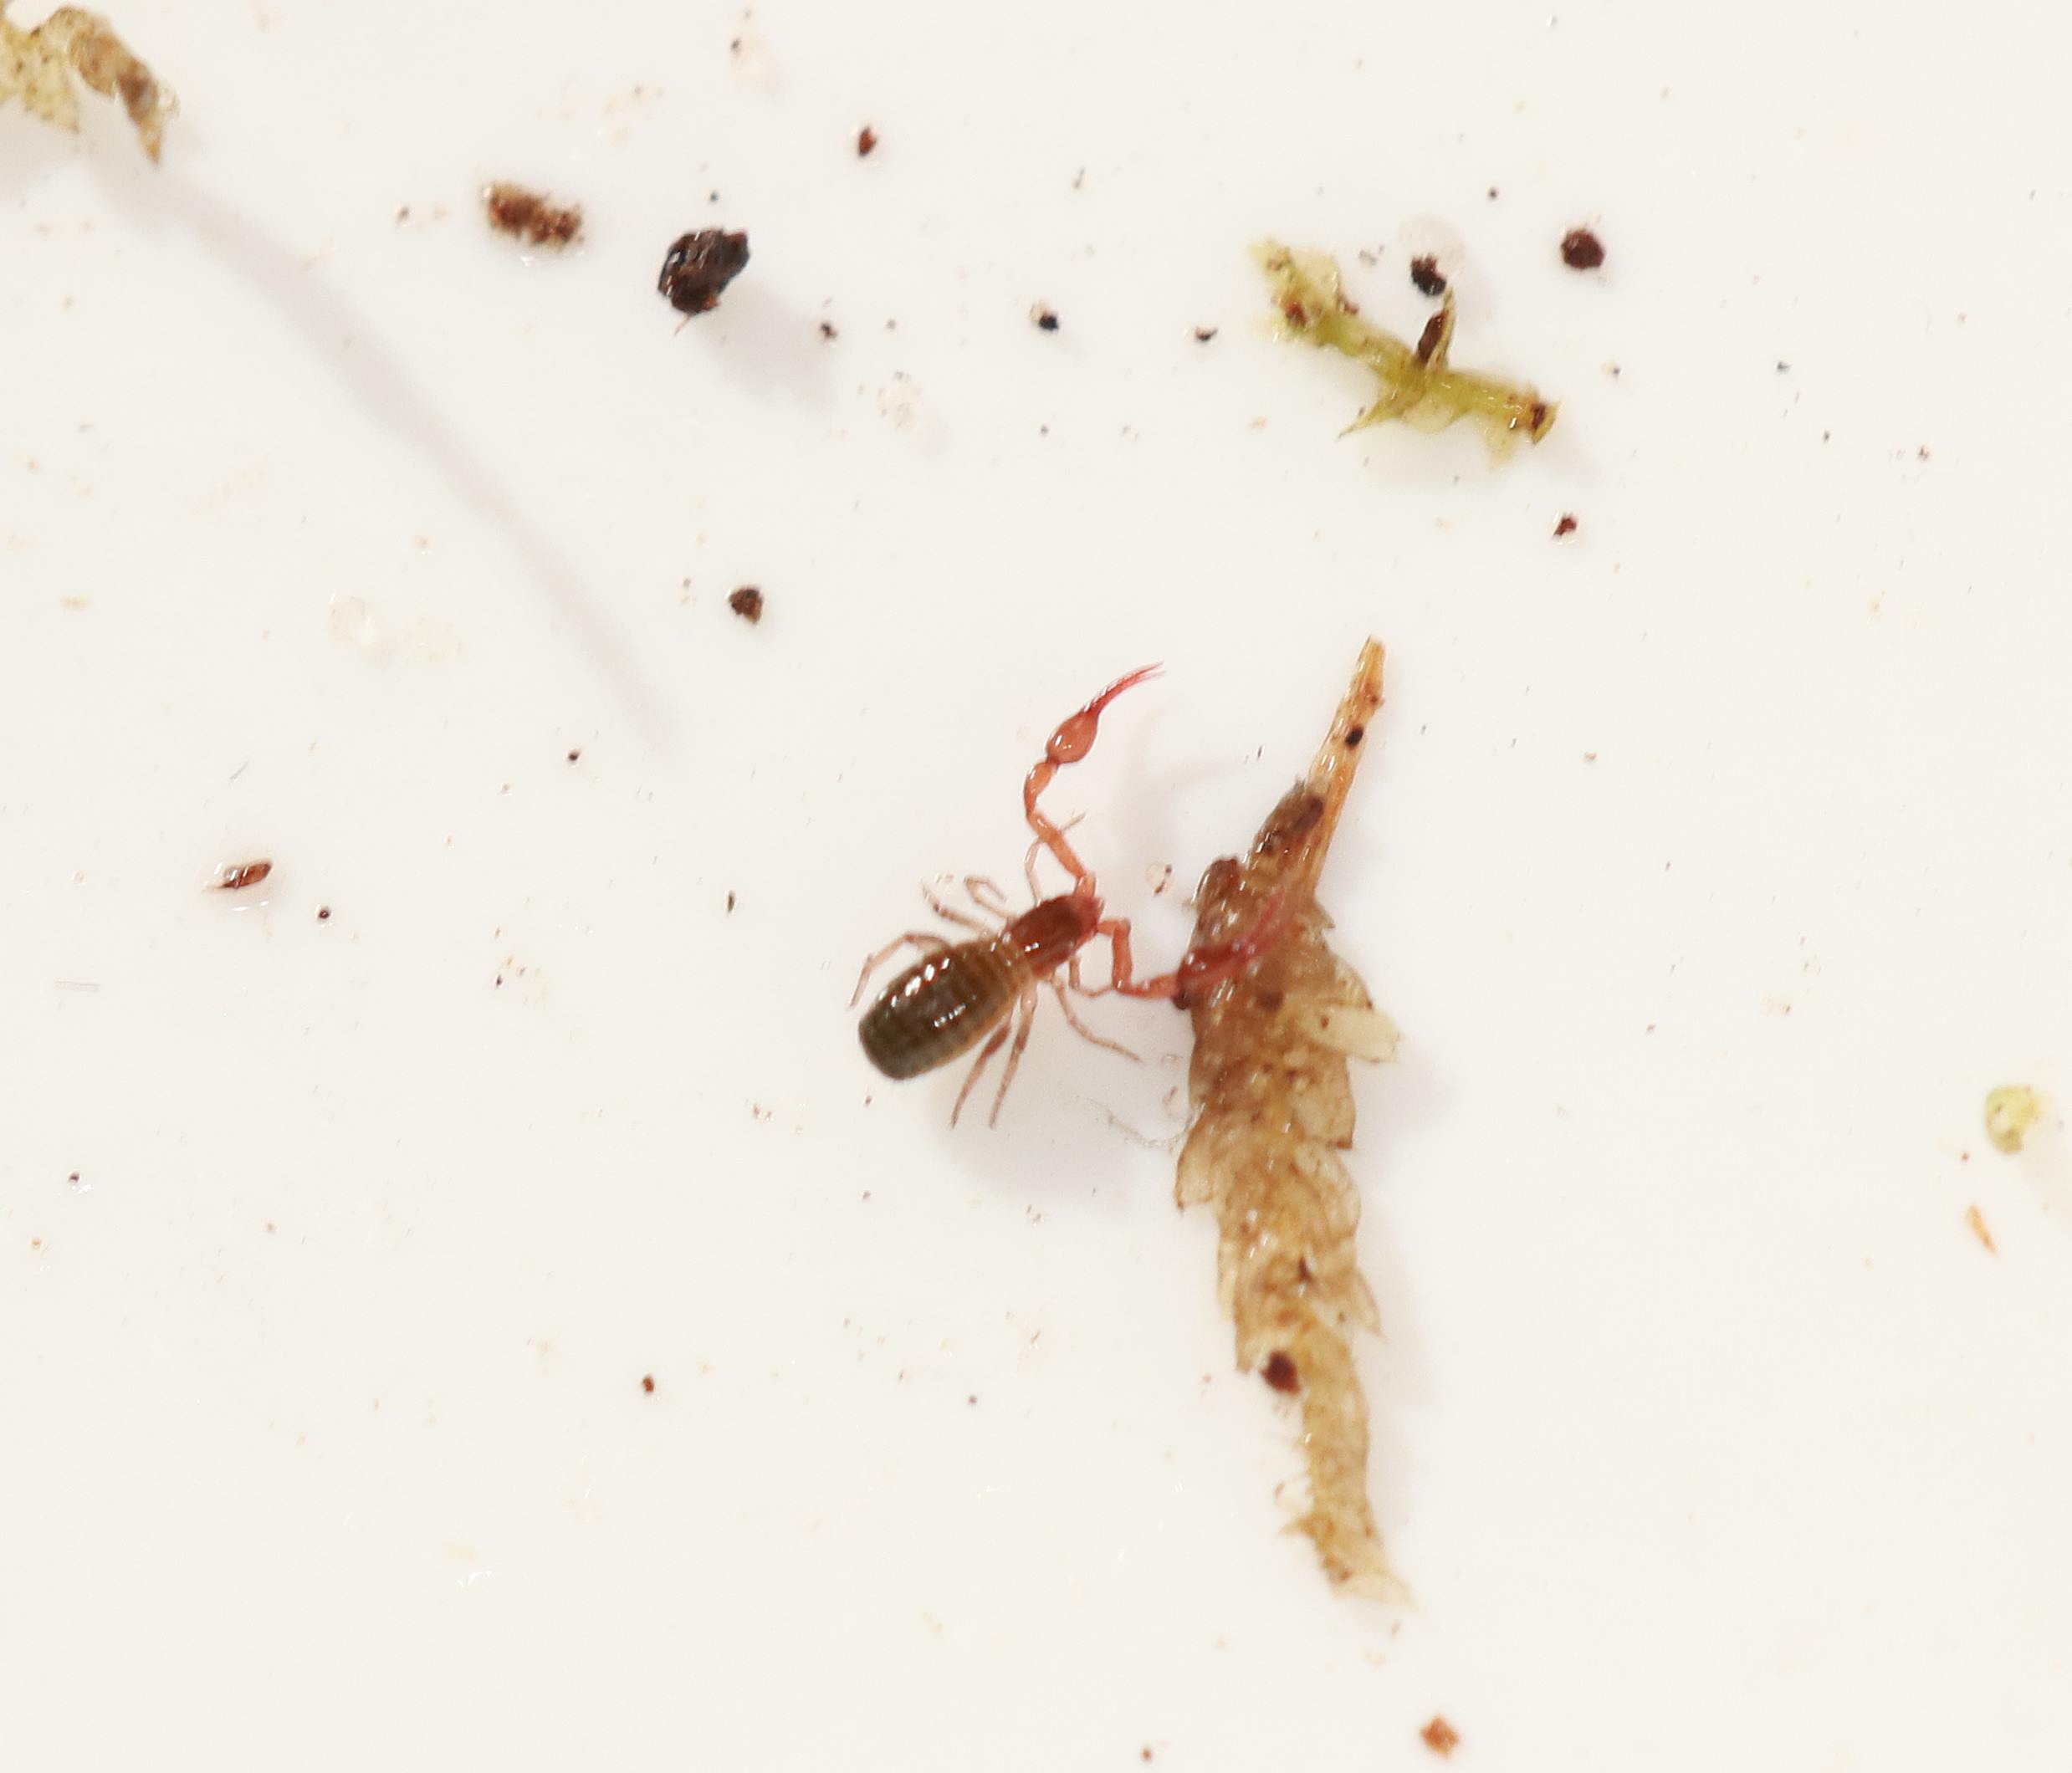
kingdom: Animalia
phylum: Arthropoda
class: Arachnida
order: Pseudoscorpiones
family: Neobisiidae
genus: Neobisium
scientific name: Neobisium carcinoides
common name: Almindelig mosskorpion
